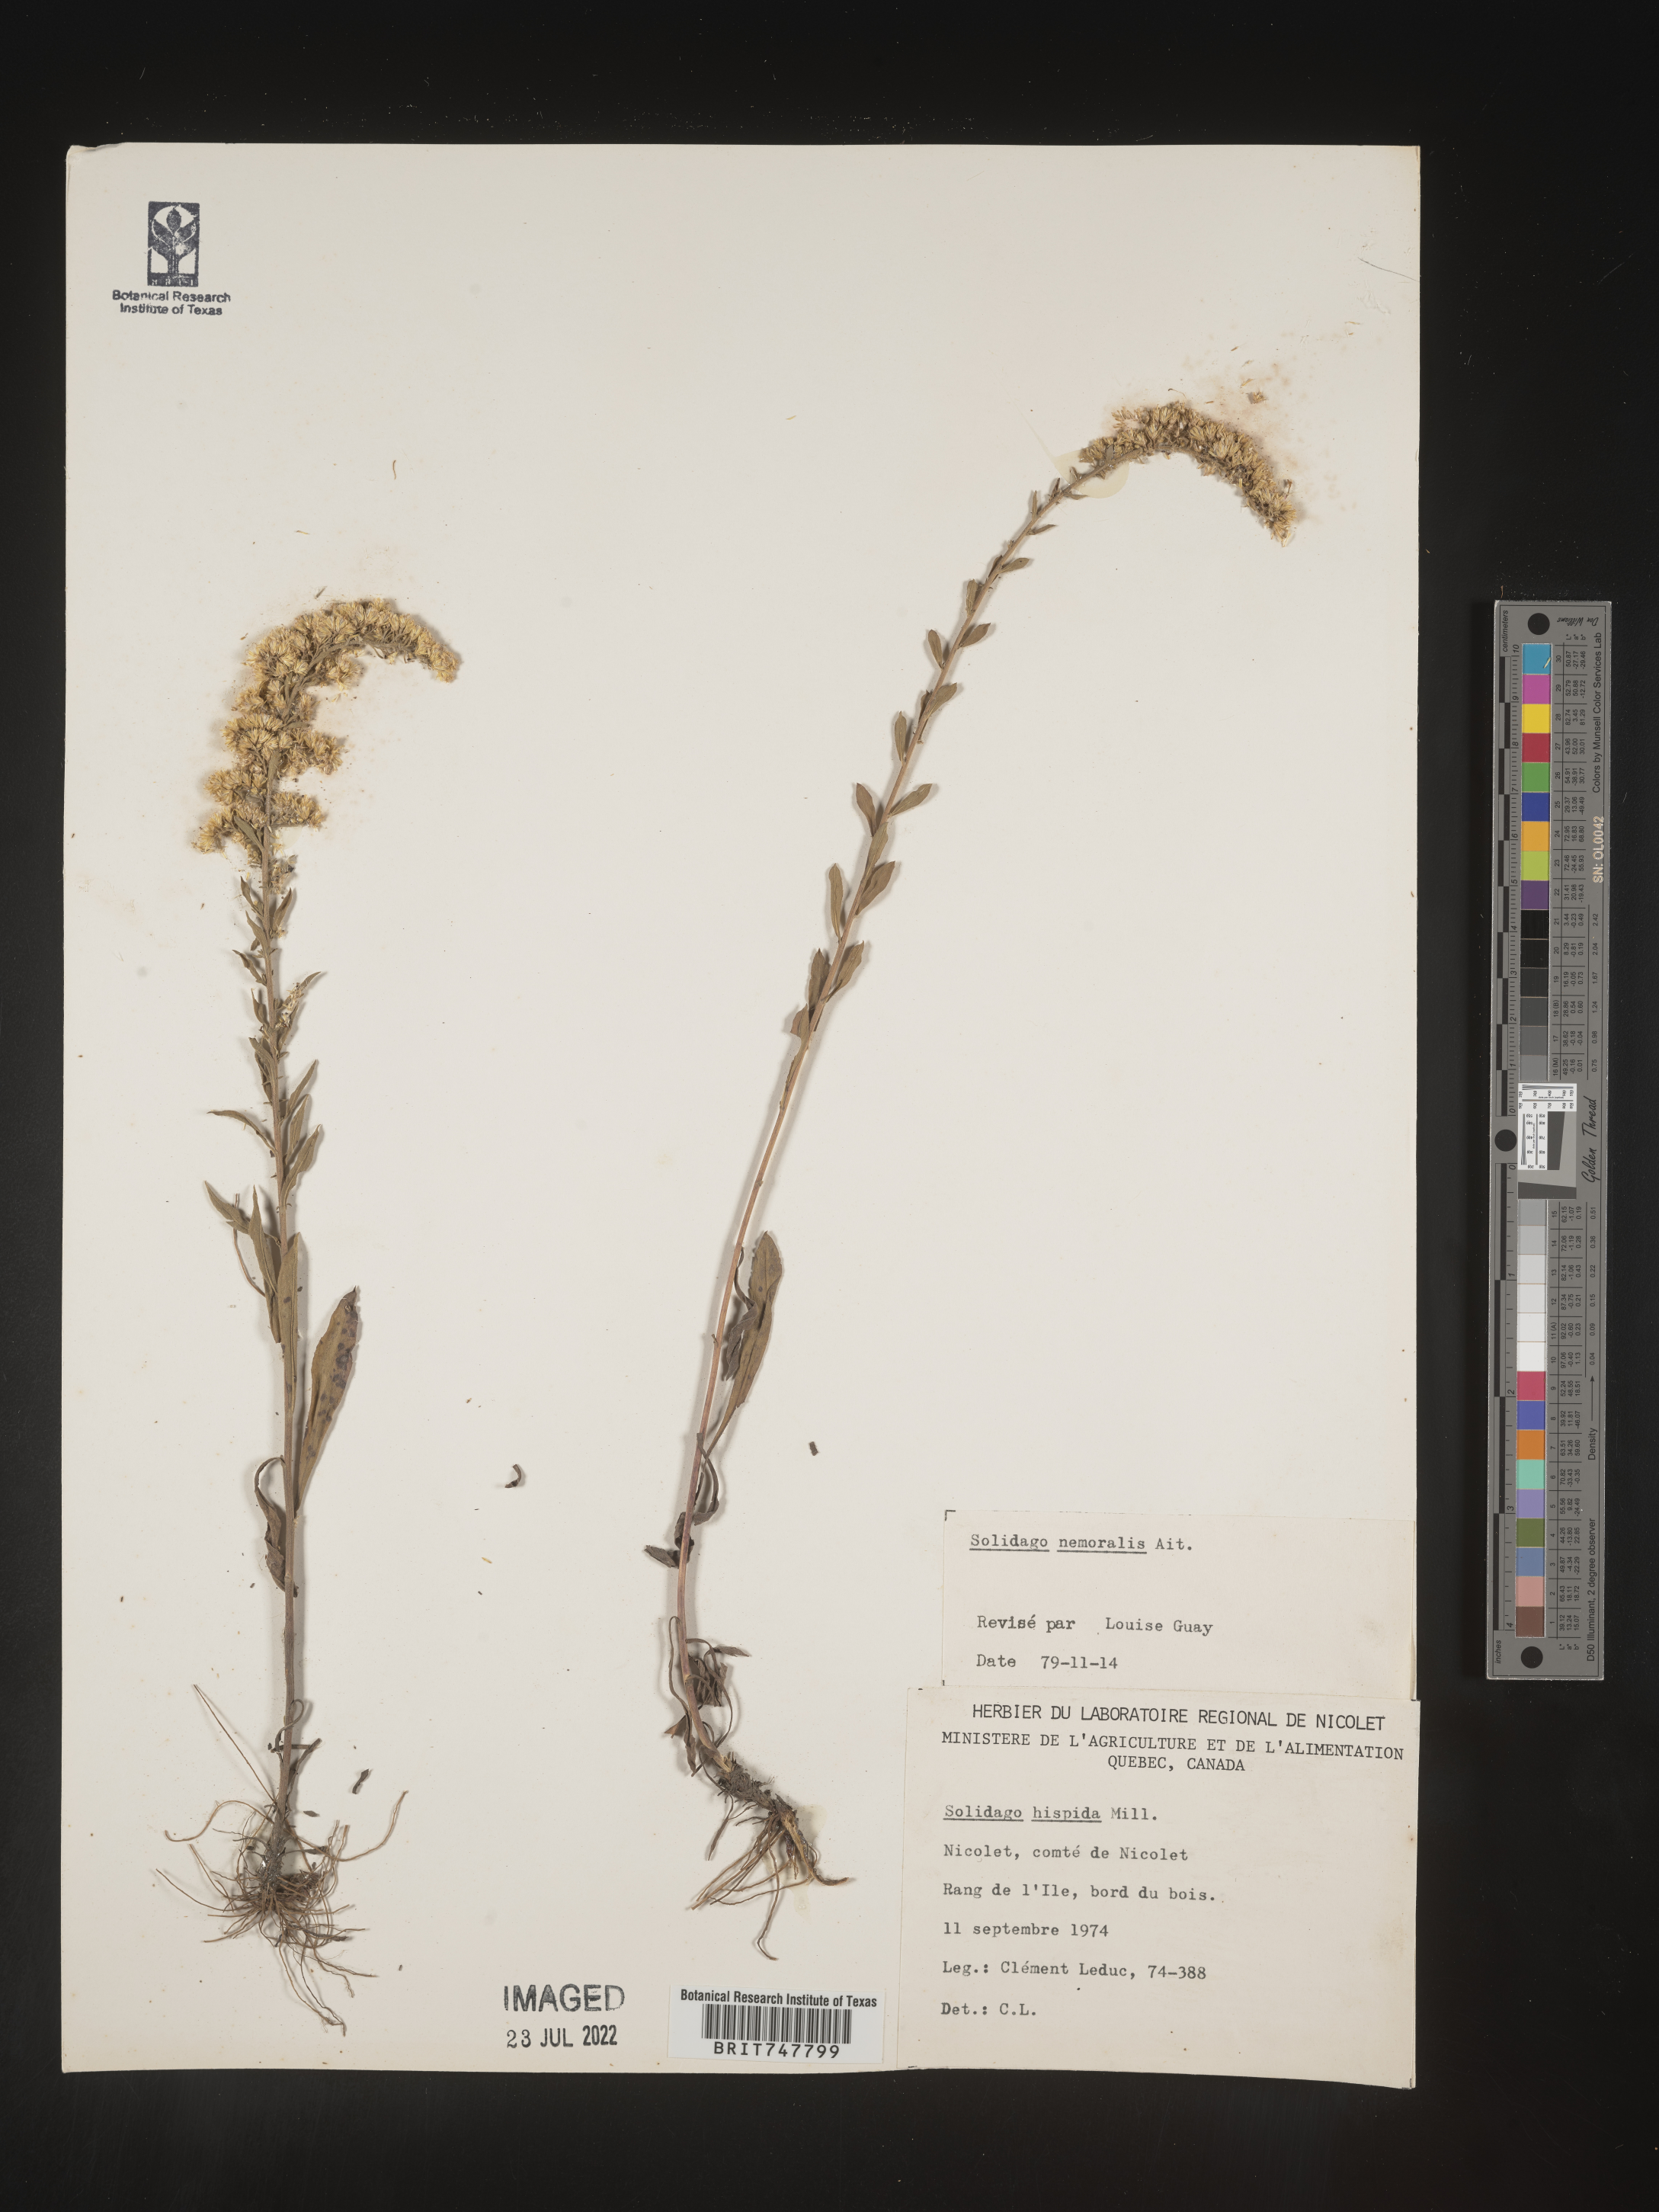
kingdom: Plantae
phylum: Tracheophyta
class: Magnoliopsida
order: Asterales
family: Asteraceae
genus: Solidago
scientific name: Solidago nemoralis
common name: Grey goldenrod
